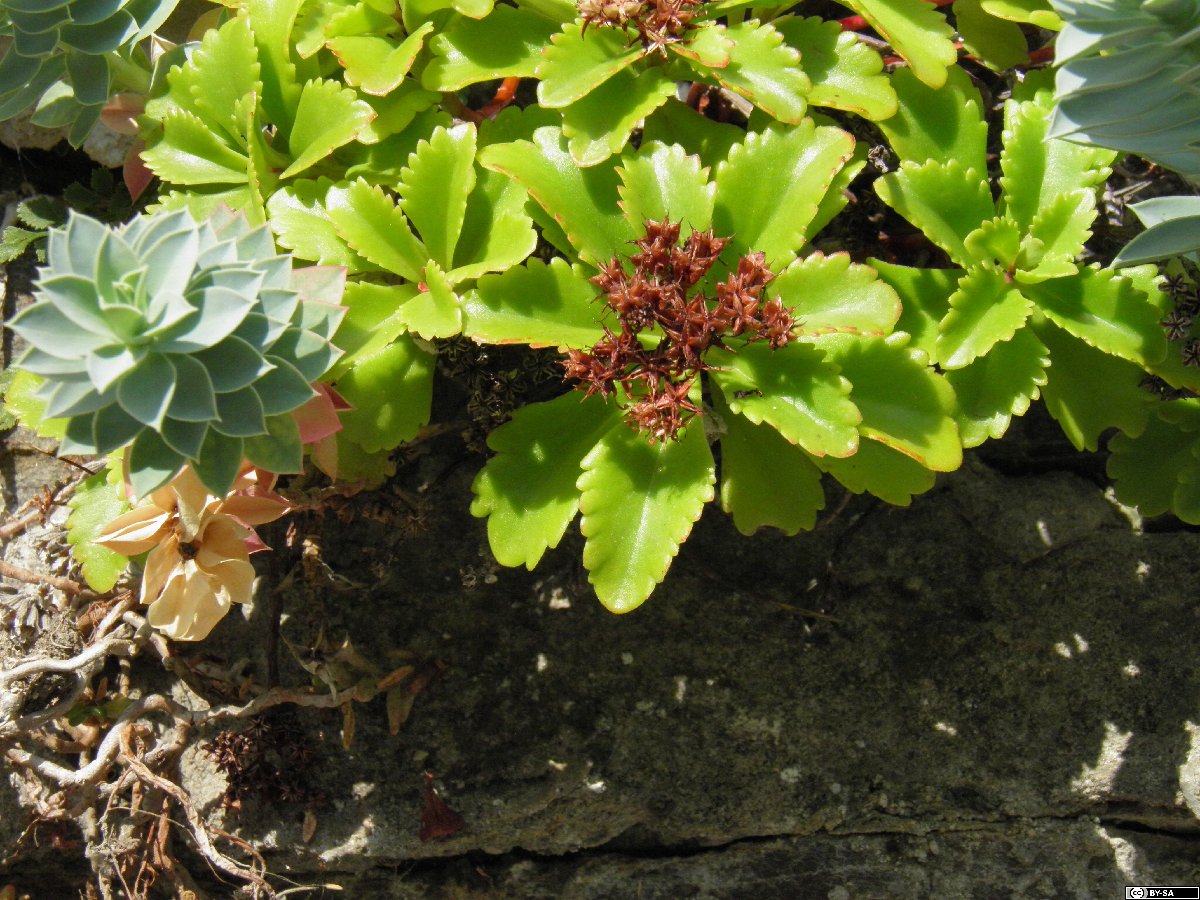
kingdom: Plantae
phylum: Tracheophyta
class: Magnoliopsida
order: Saxifragales
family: Crassulaceae
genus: Phedimus
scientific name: Phedimus ellacombeanus
